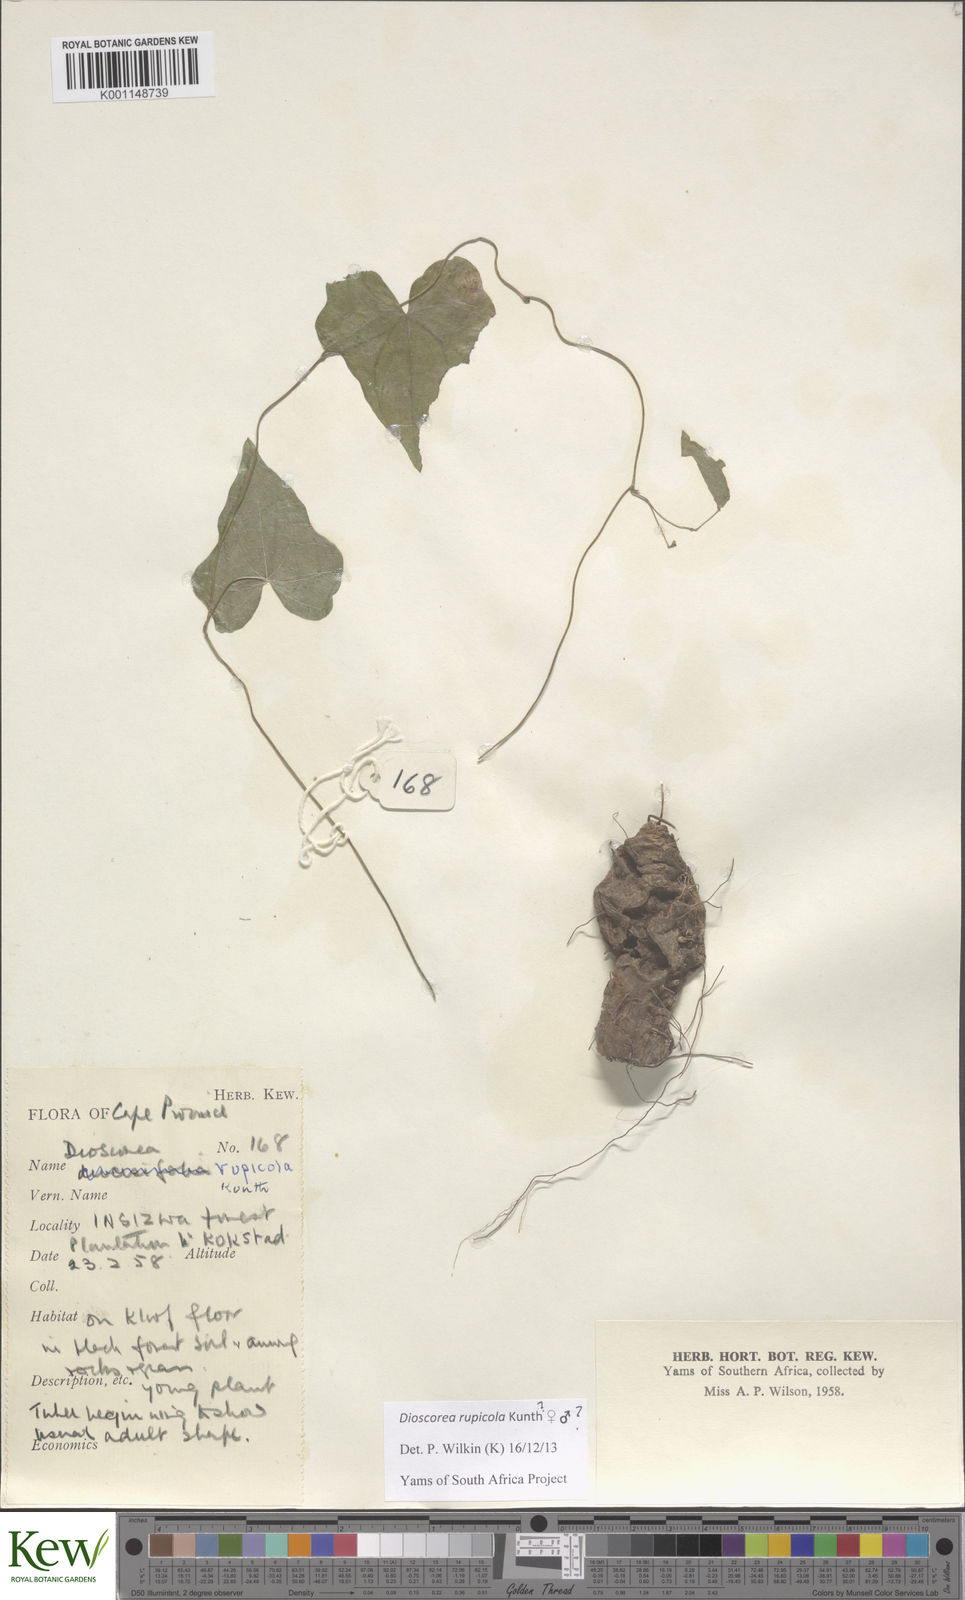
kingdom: Plantae
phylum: Tracheophyta
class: Liliopsida
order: Dioscoreales
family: Dioscoreaceae
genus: Dioscorea
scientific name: Dioscorea rupicola
